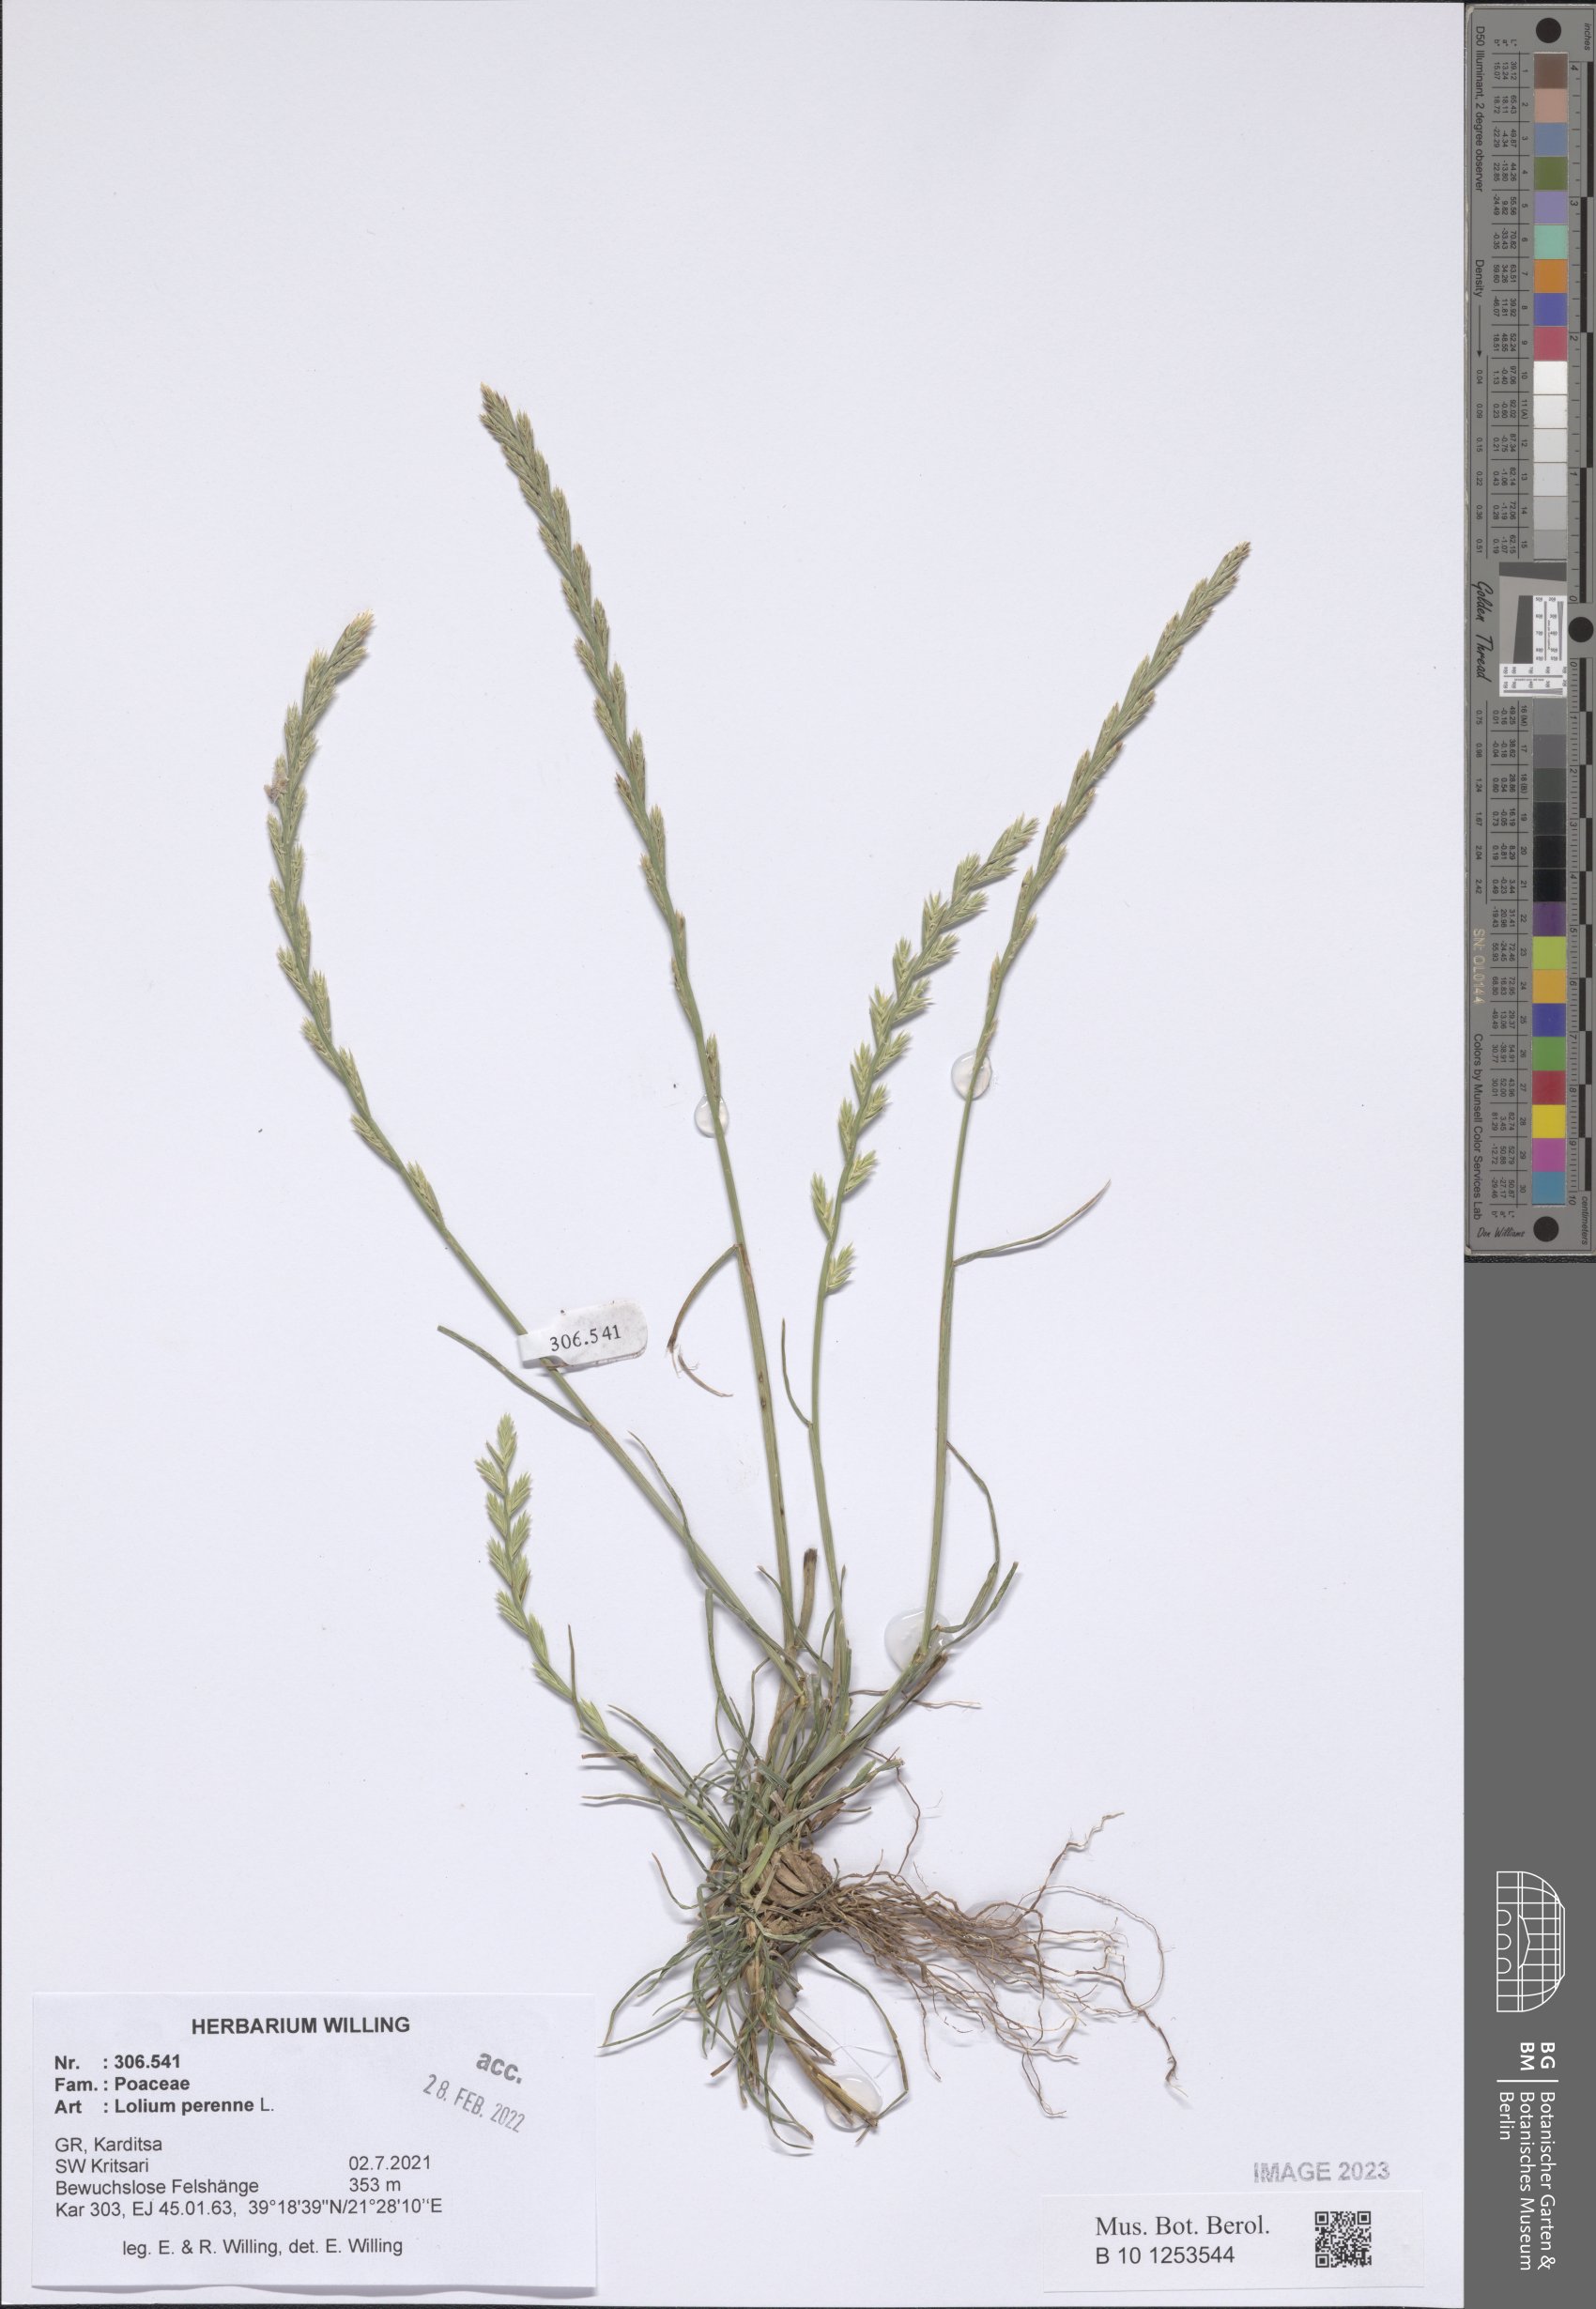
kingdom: Plantae
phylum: Tracheophyta
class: Liliopsida
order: Poales
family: Poaceae
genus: Lolium
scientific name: Lolium perenne
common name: Perennial ryegrass
